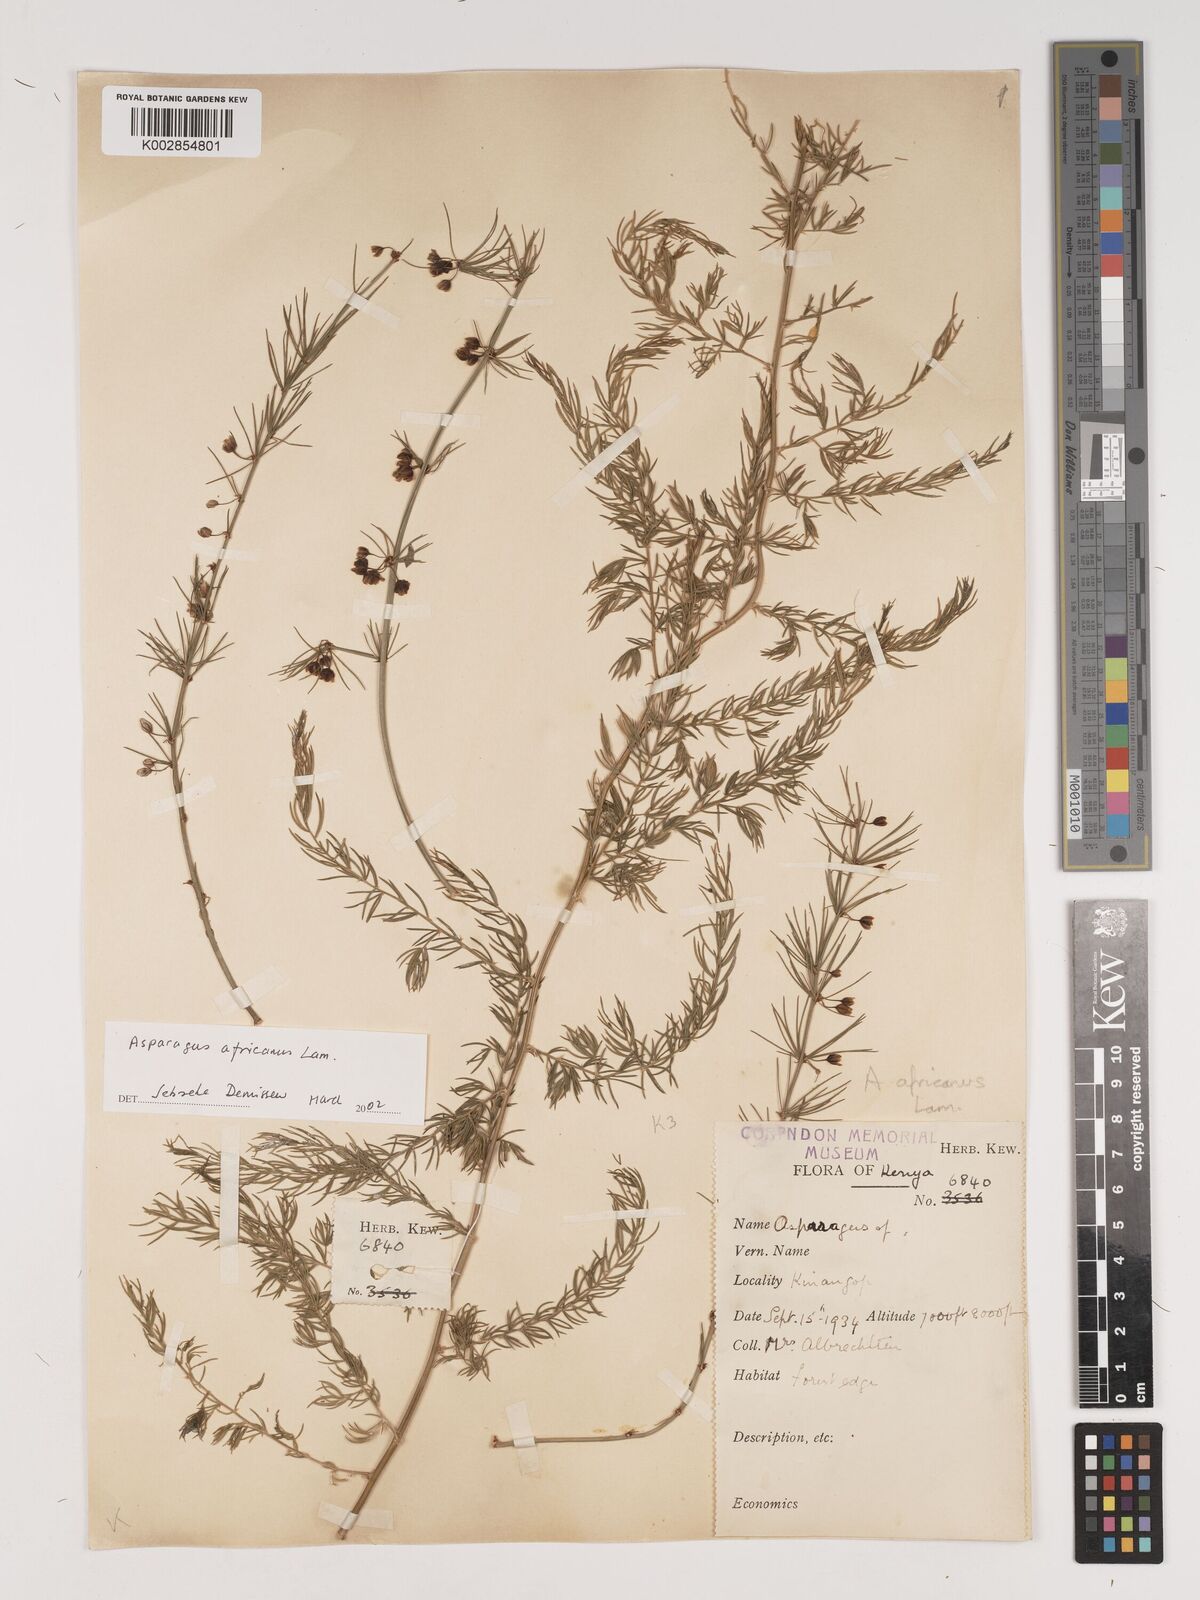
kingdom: Plantae
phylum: Tracheophyta
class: Liliopsida
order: Asparagales
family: Asparagaceae
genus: Asparagus
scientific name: Asparagus africanus
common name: Asparagus-fern
